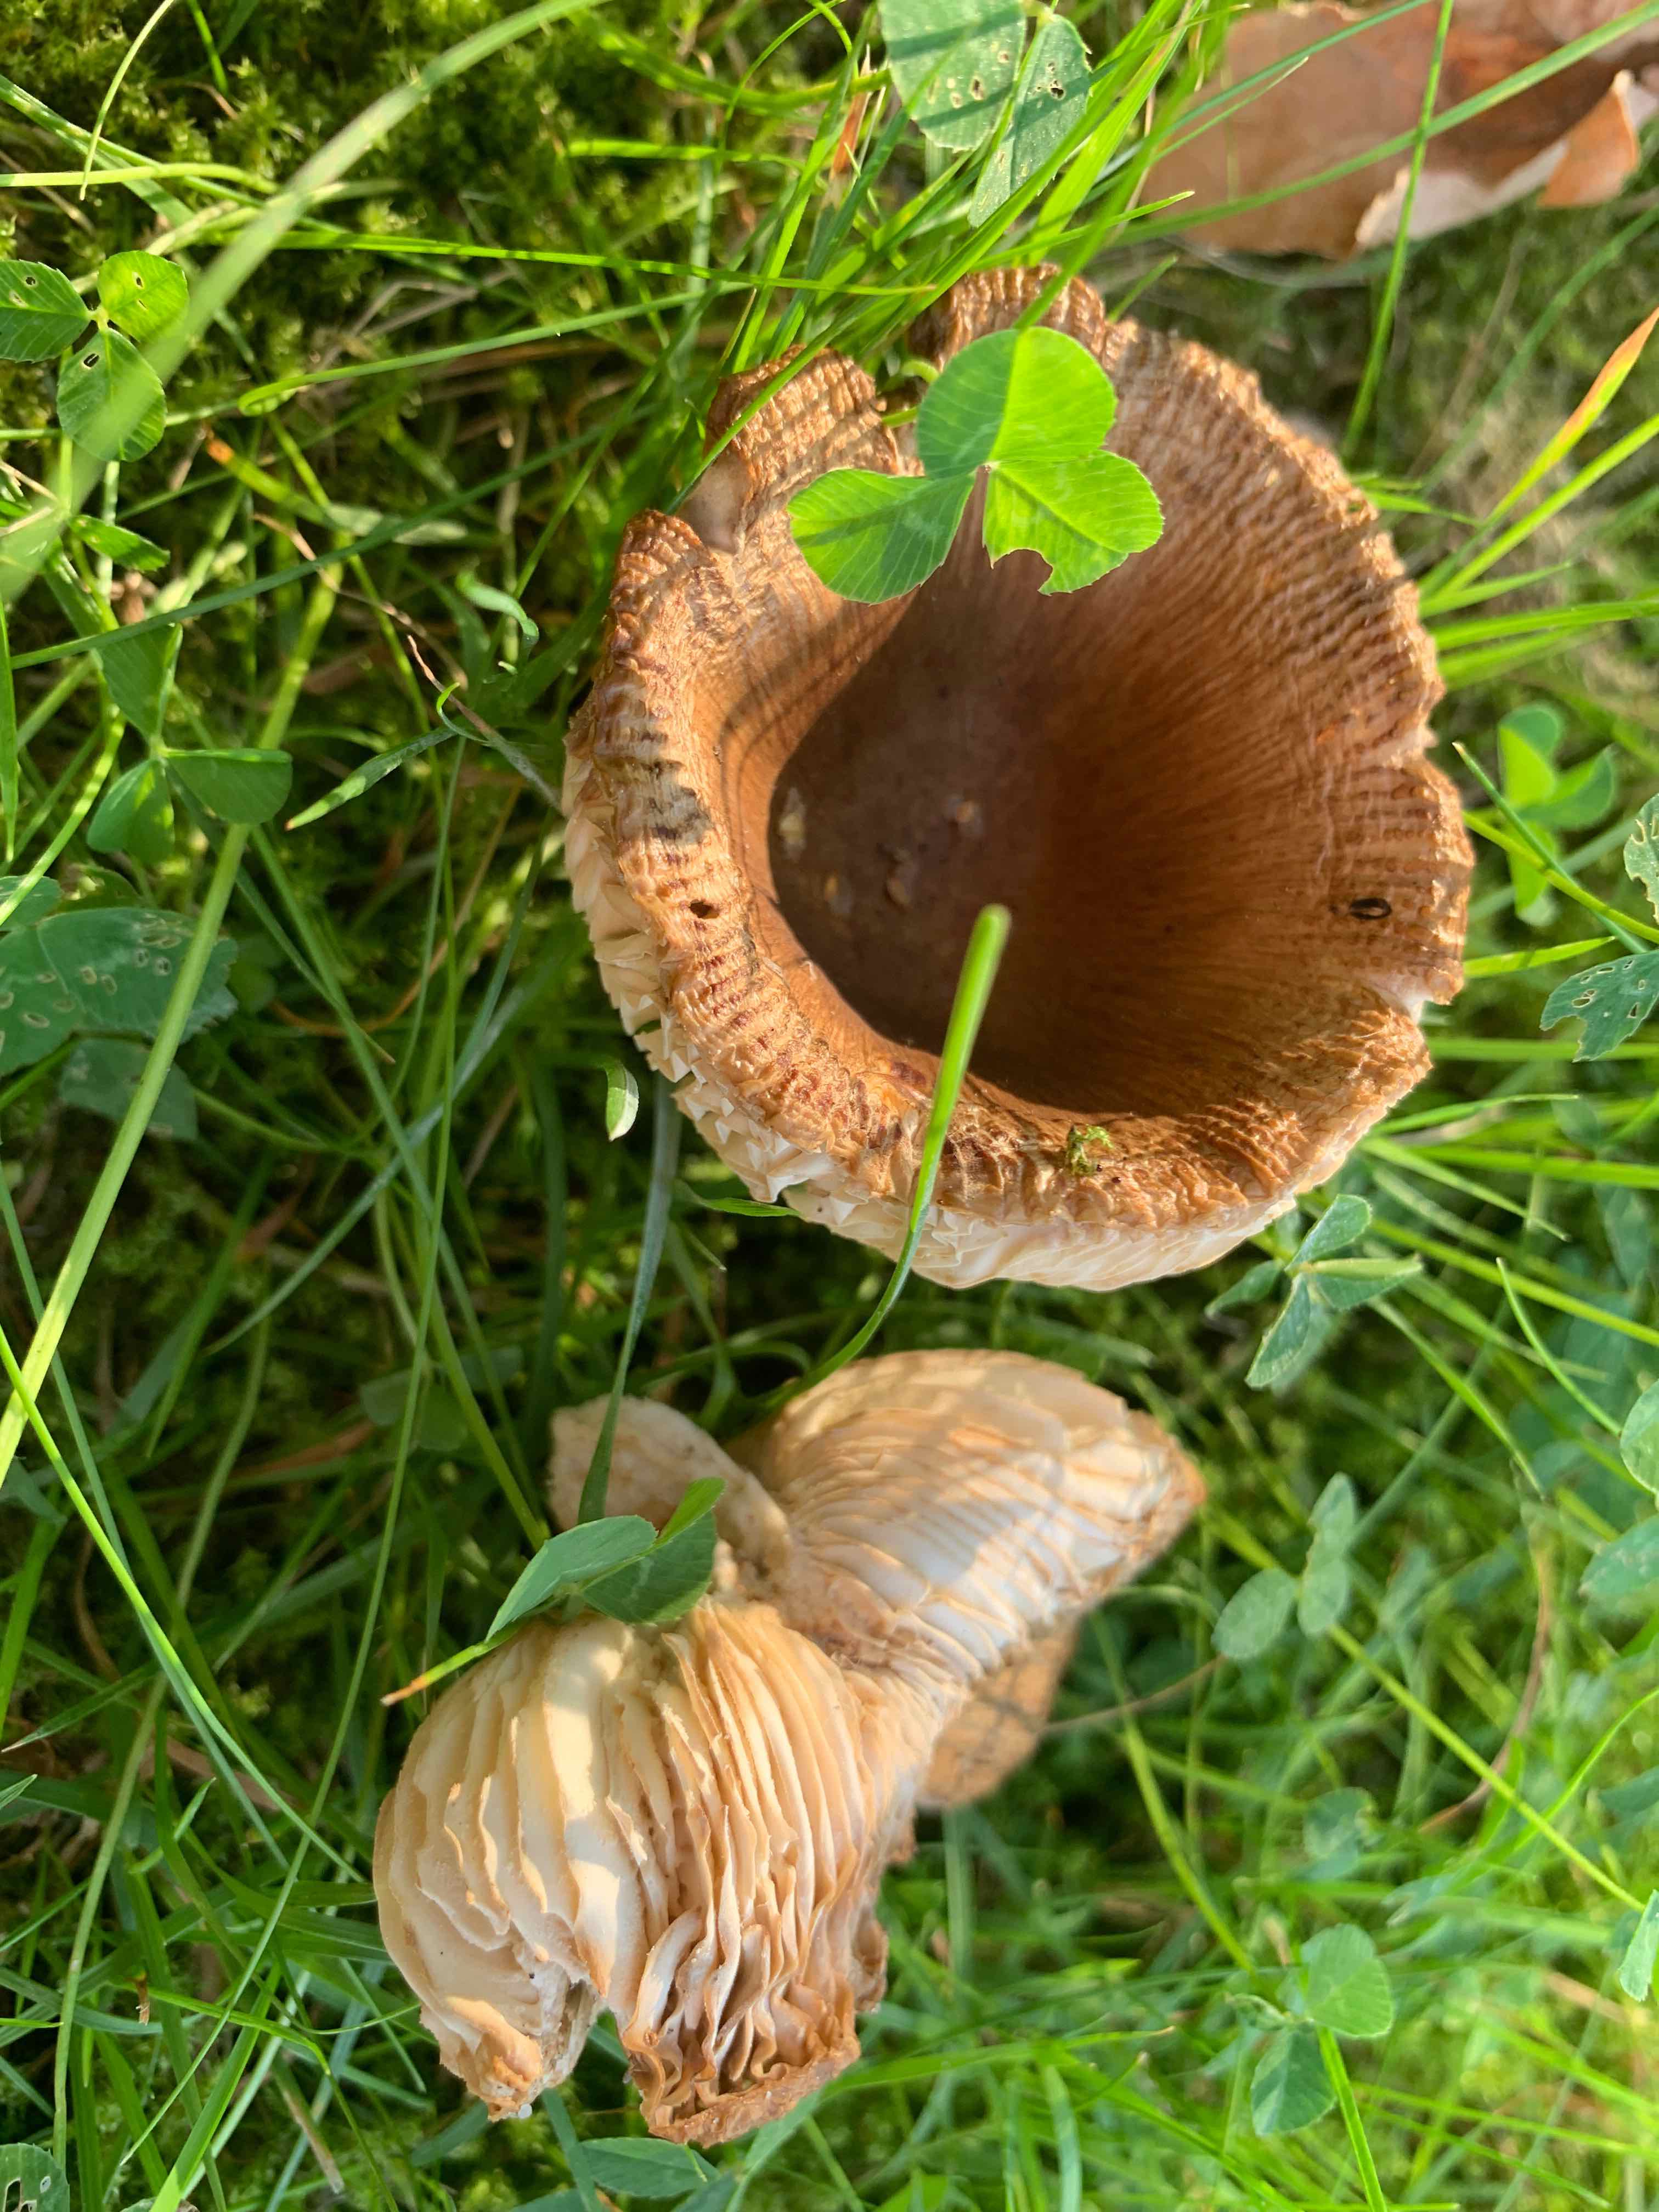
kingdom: Fungi
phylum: Basidiomycota
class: Agaricomycetes
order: Russulales
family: Russulaceae
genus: Russula
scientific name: Russula recondita
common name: mild kam-skørhat
